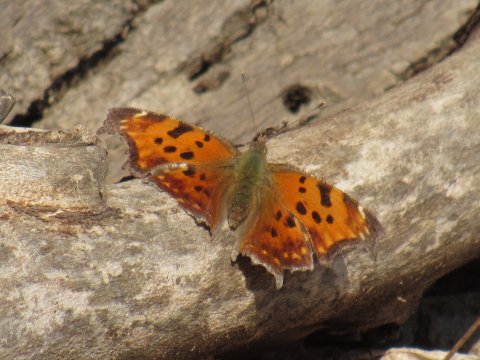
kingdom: Animalia
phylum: Arthropoda
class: Insecta
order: Lepidoptera
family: Nymphalidae
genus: Polygonia
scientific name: Polygonia comma
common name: Eastern Comma
